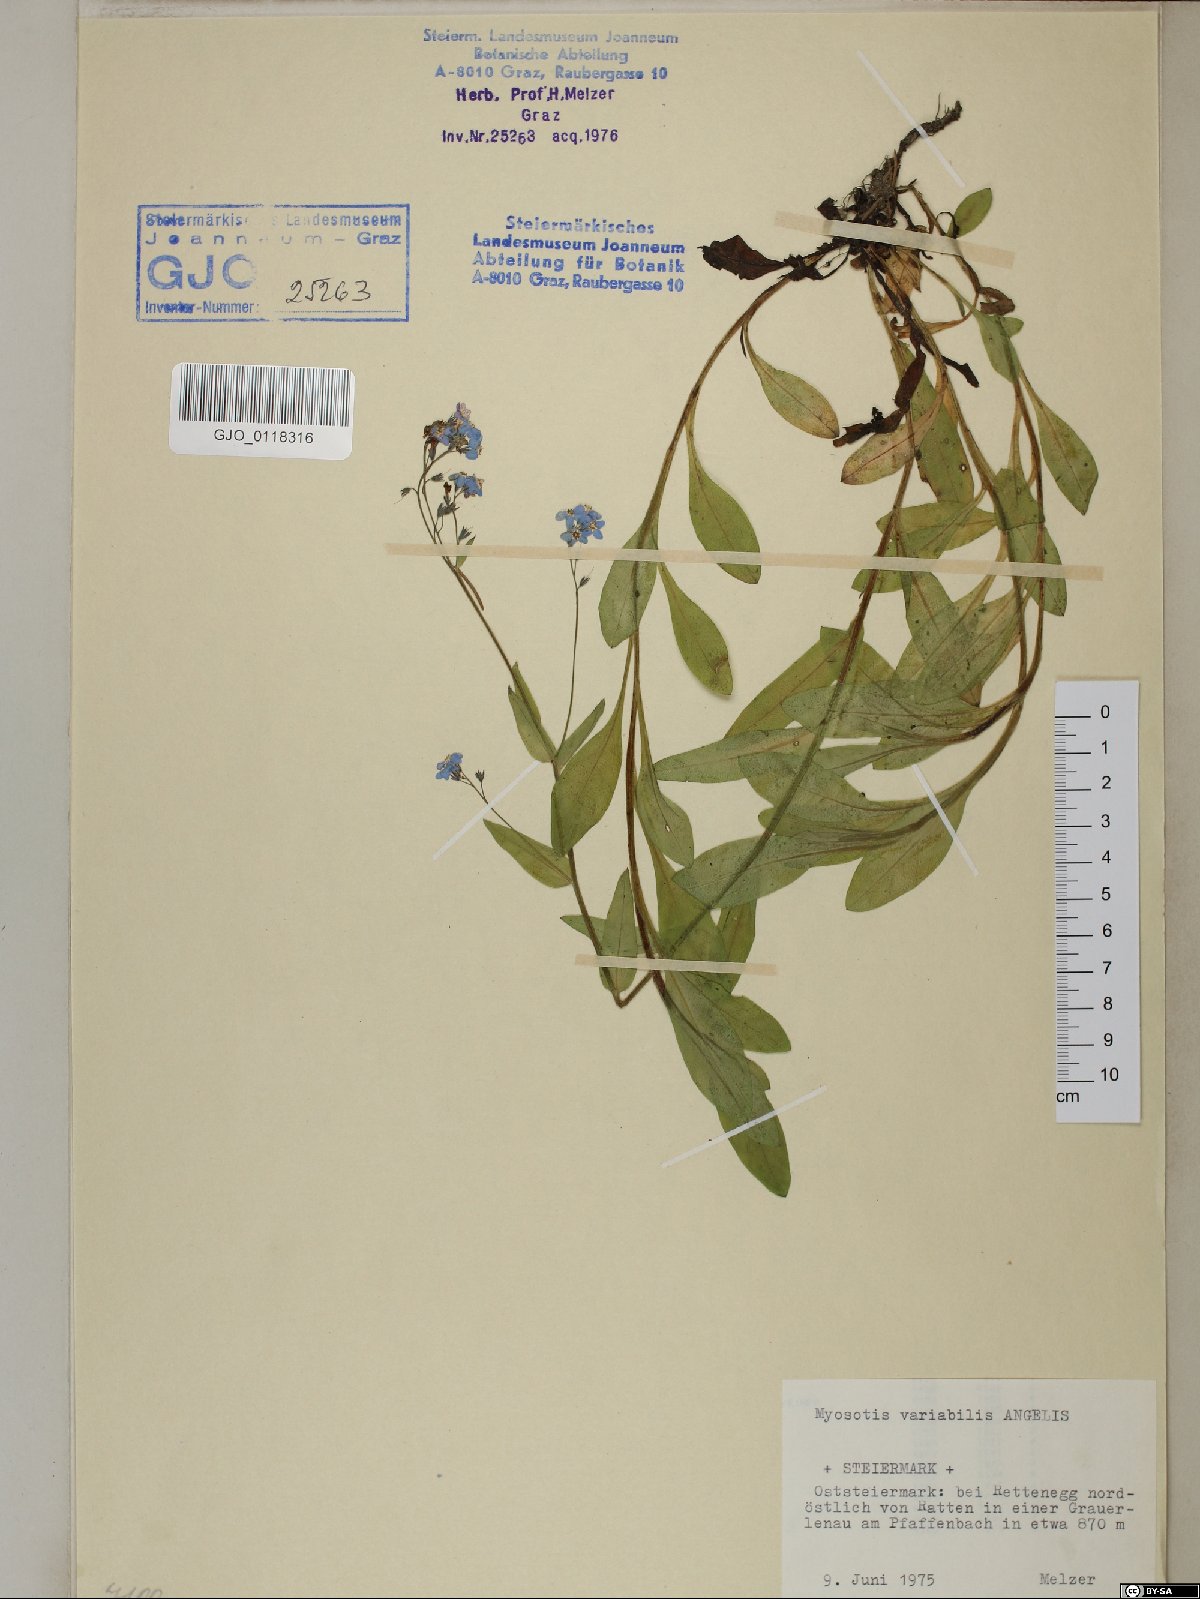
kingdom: Plantae
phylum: Tracheophyta
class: Magnoliopsida
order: Boraginales
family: Boraginaceae
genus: Myosotis
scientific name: Myosotis decumbens
